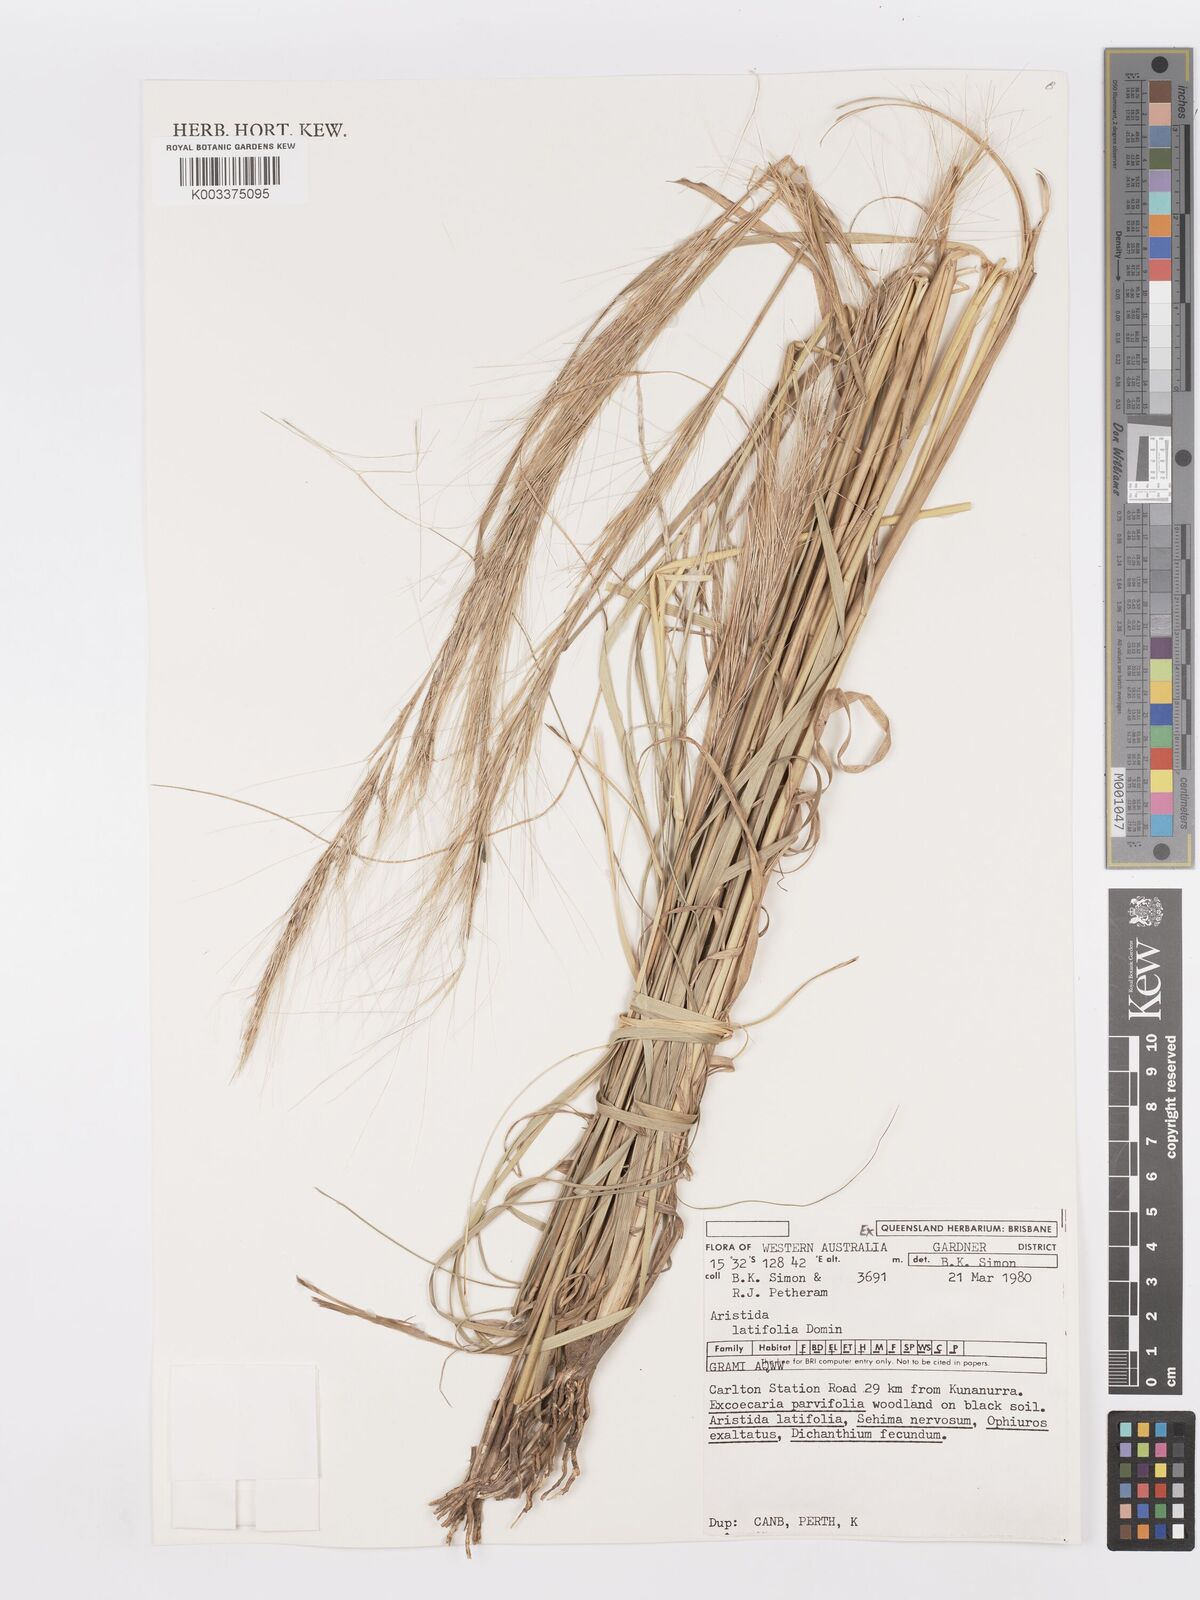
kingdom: Plantae
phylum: Tracheophyta
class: Liliopsida
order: Poales
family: Poaceae
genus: Aristida
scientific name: Aristida latifolia
